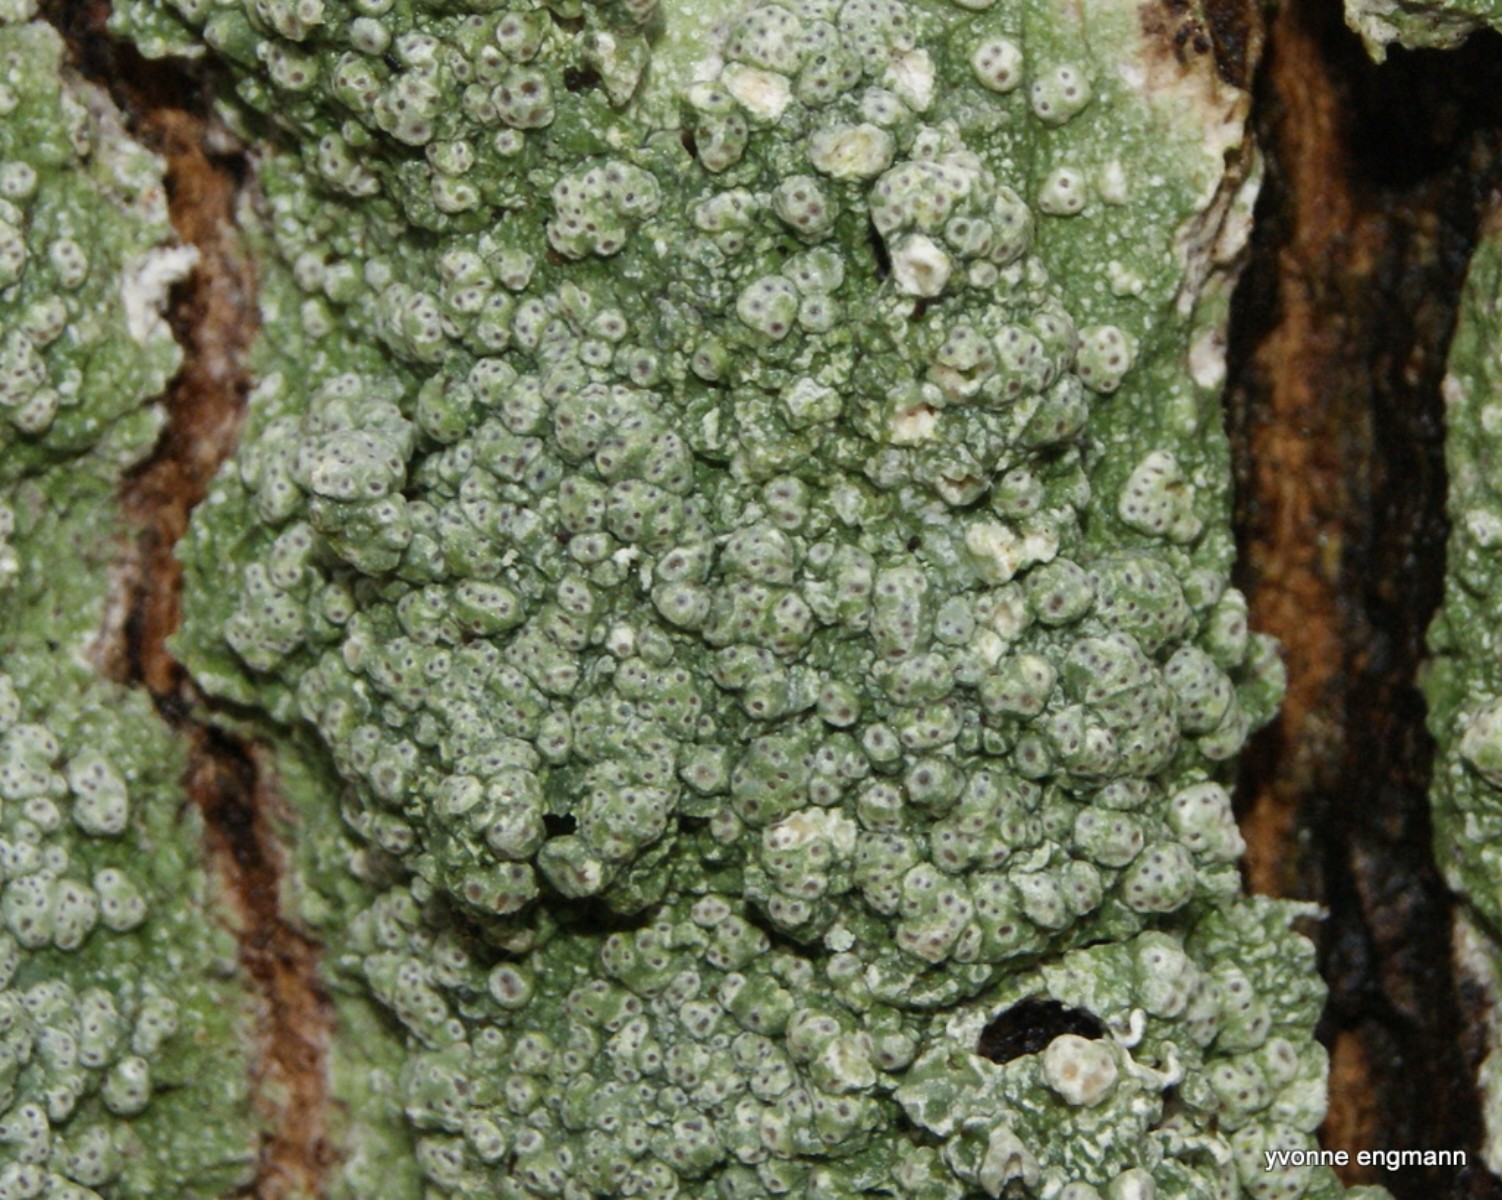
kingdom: Fungi
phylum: Ascomycota
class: Lecanoromycetes
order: Pertusariales
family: Pertusariaceae
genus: Pertusaria
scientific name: Pertusaria pertusa
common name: almindelig prikvortelav
